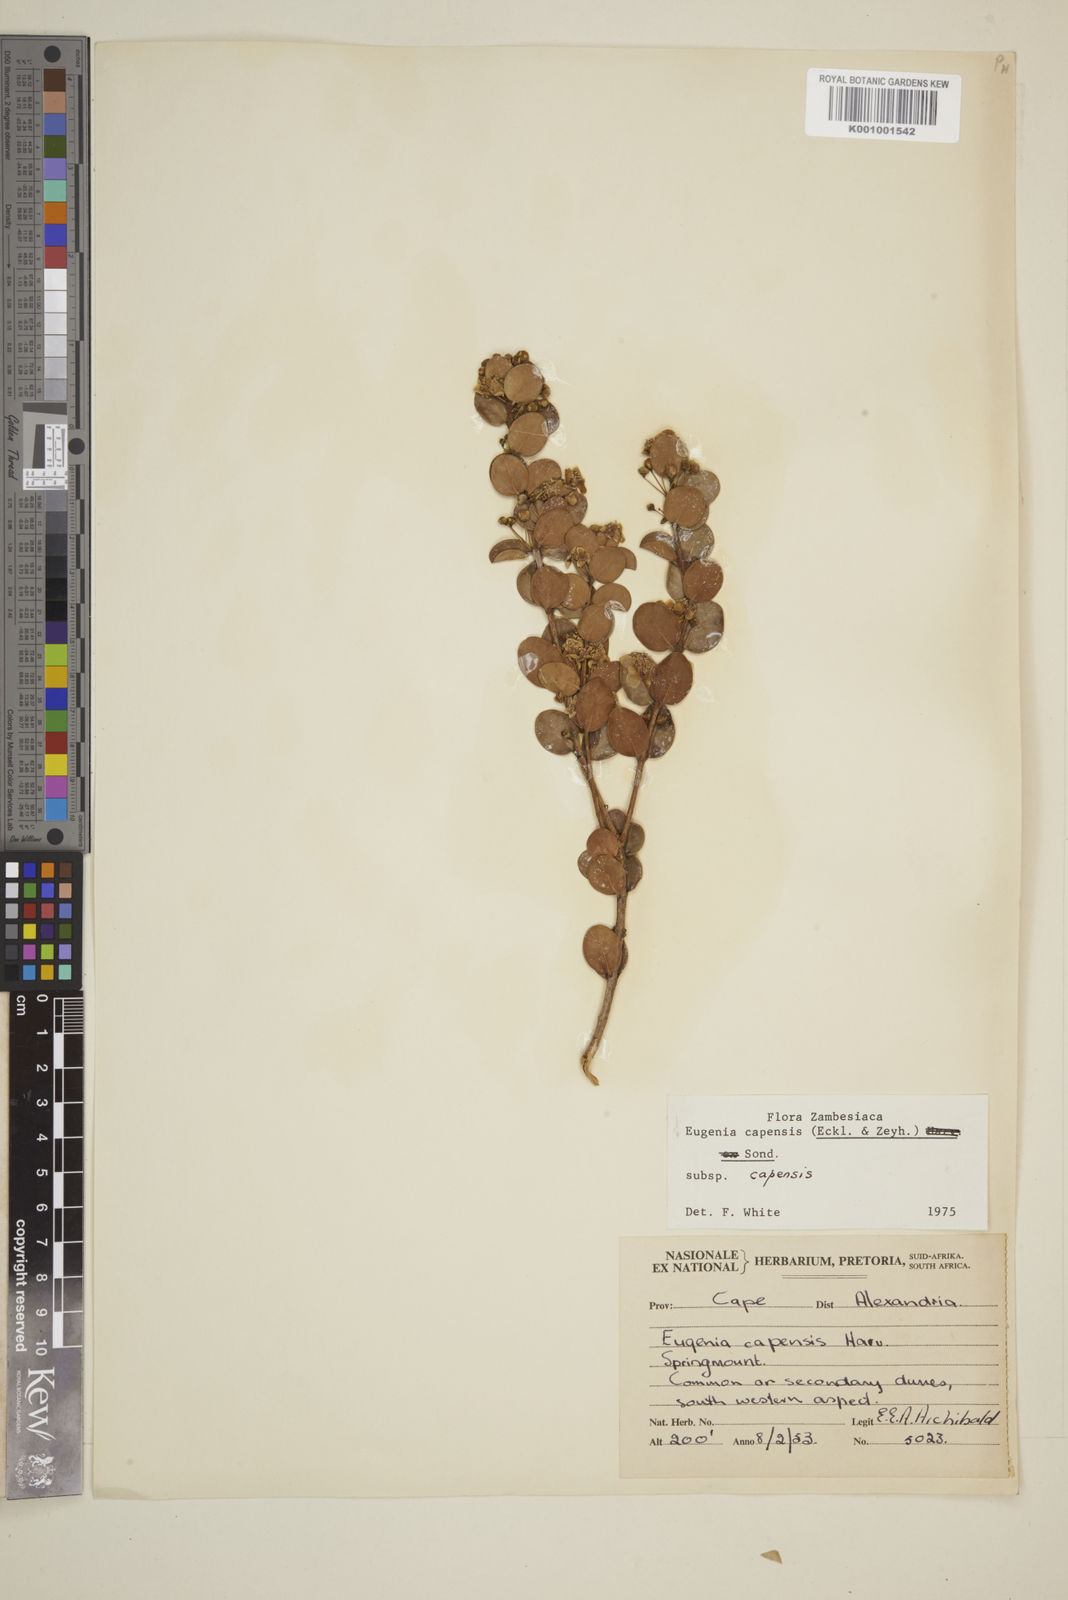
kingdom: Plantae
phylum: Tracheophyta
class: Magnoliopsida
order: Myrtales
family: Myrtaceae
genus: Eugenia
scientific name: Eugenia capensis
